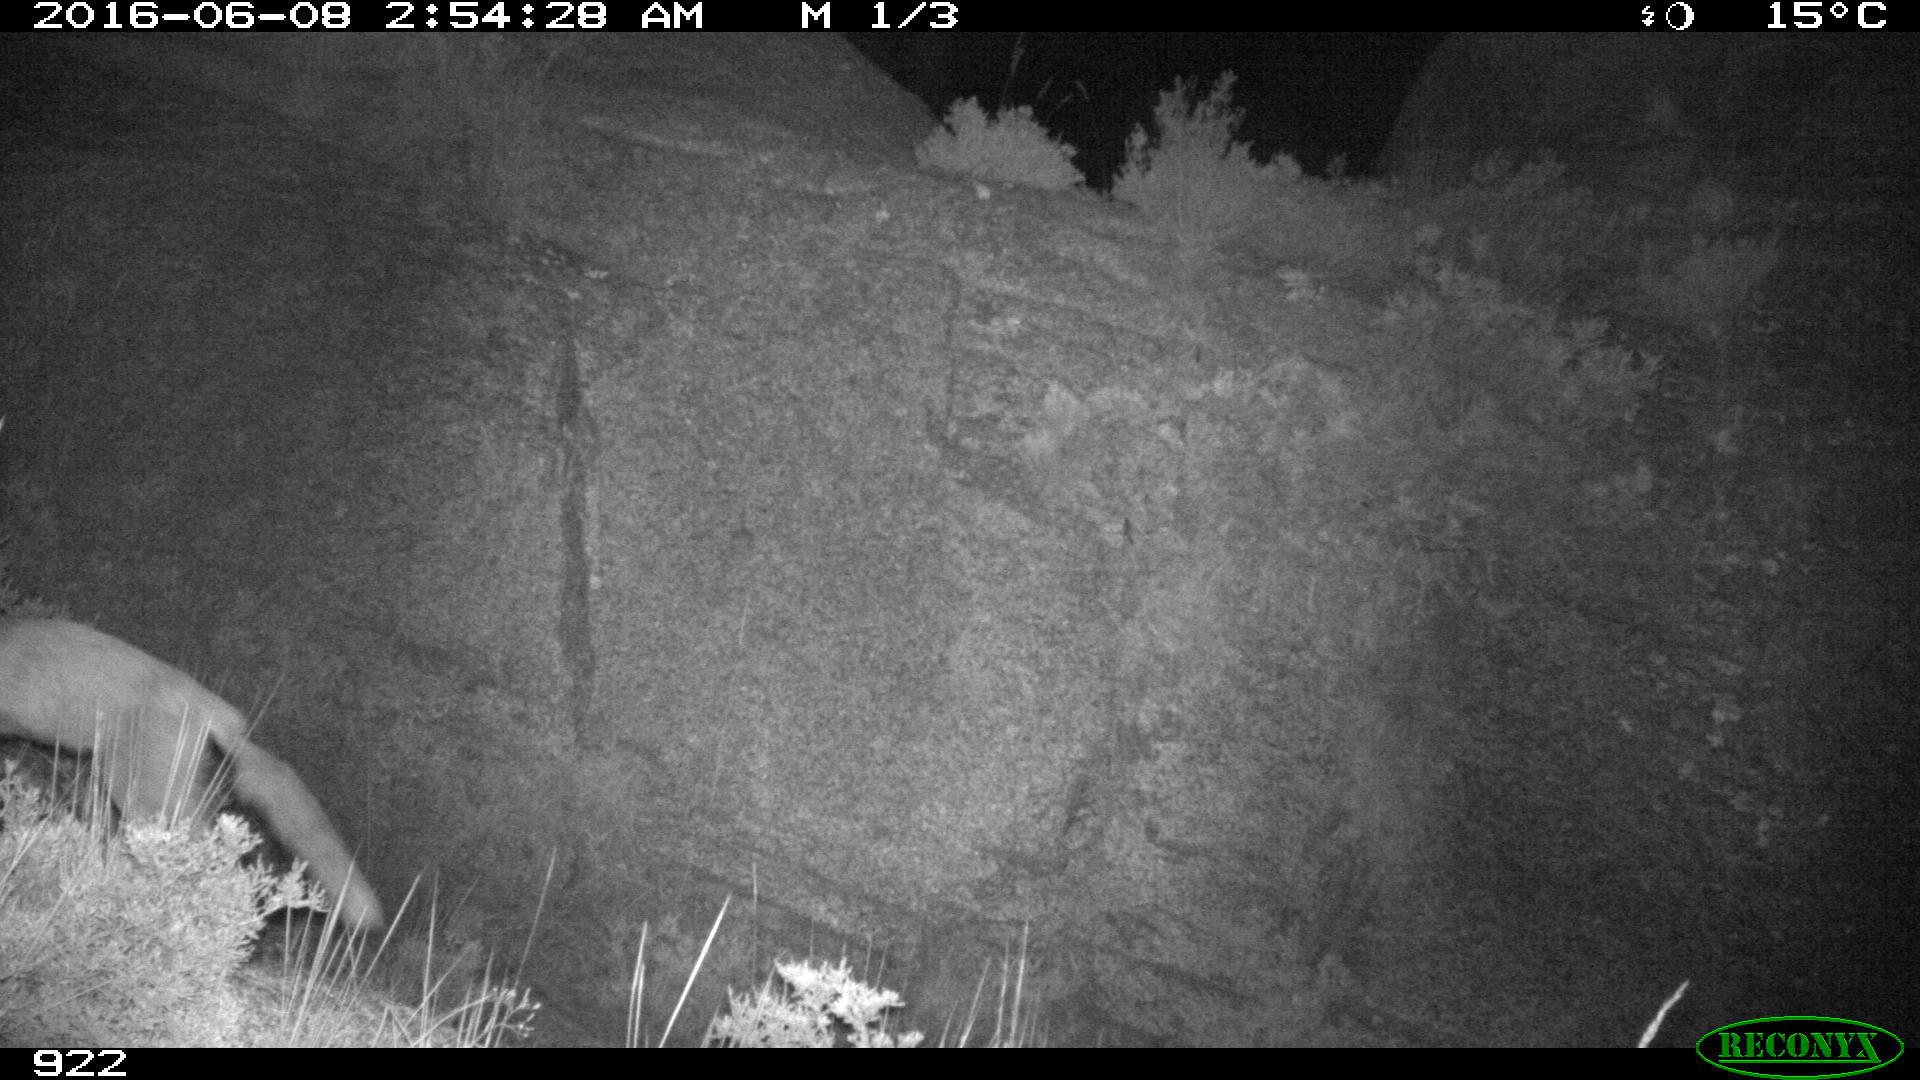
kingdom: Animalia
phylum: Chordata
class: Mammalia
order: Carnivora
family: Canidae
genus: Vulpes
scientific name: Vulpes vulpes
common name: Red fox
